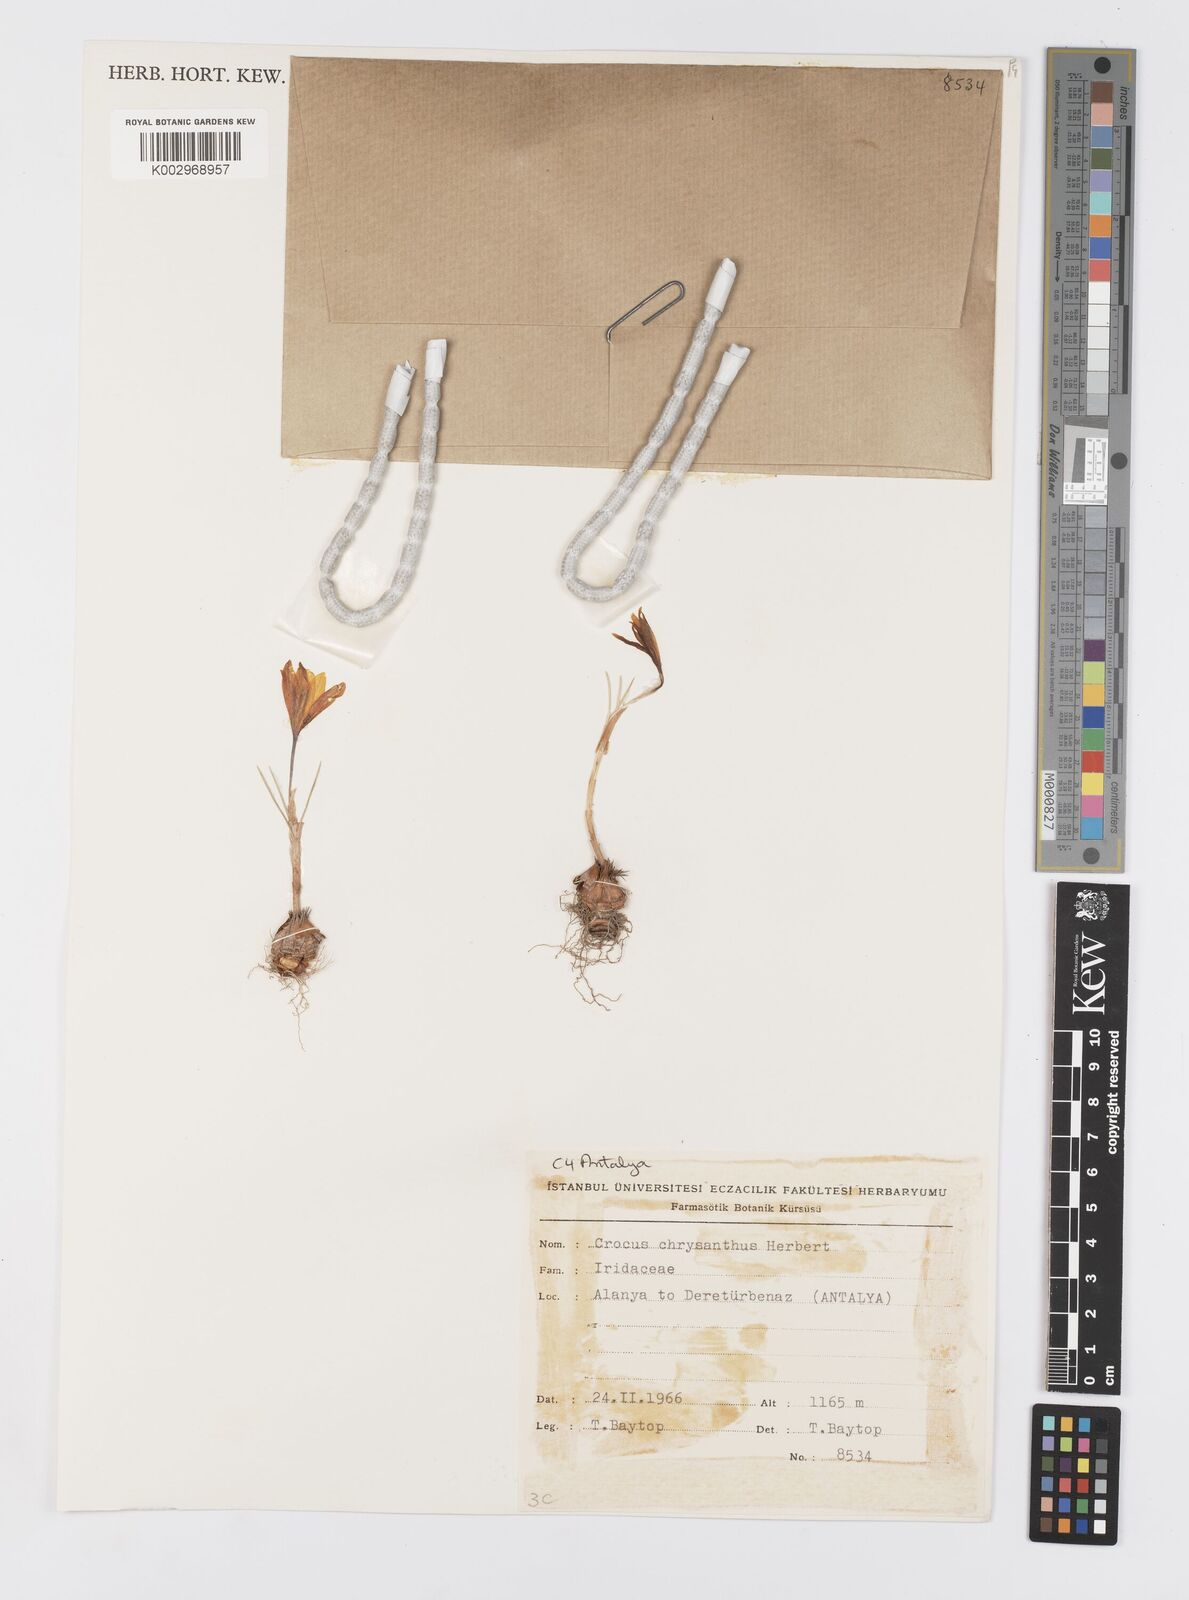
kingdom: Plantae
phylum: Tracheophyta
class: Liliopsida
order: Asparagales
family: Iridaceae
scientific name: Iridaceae
